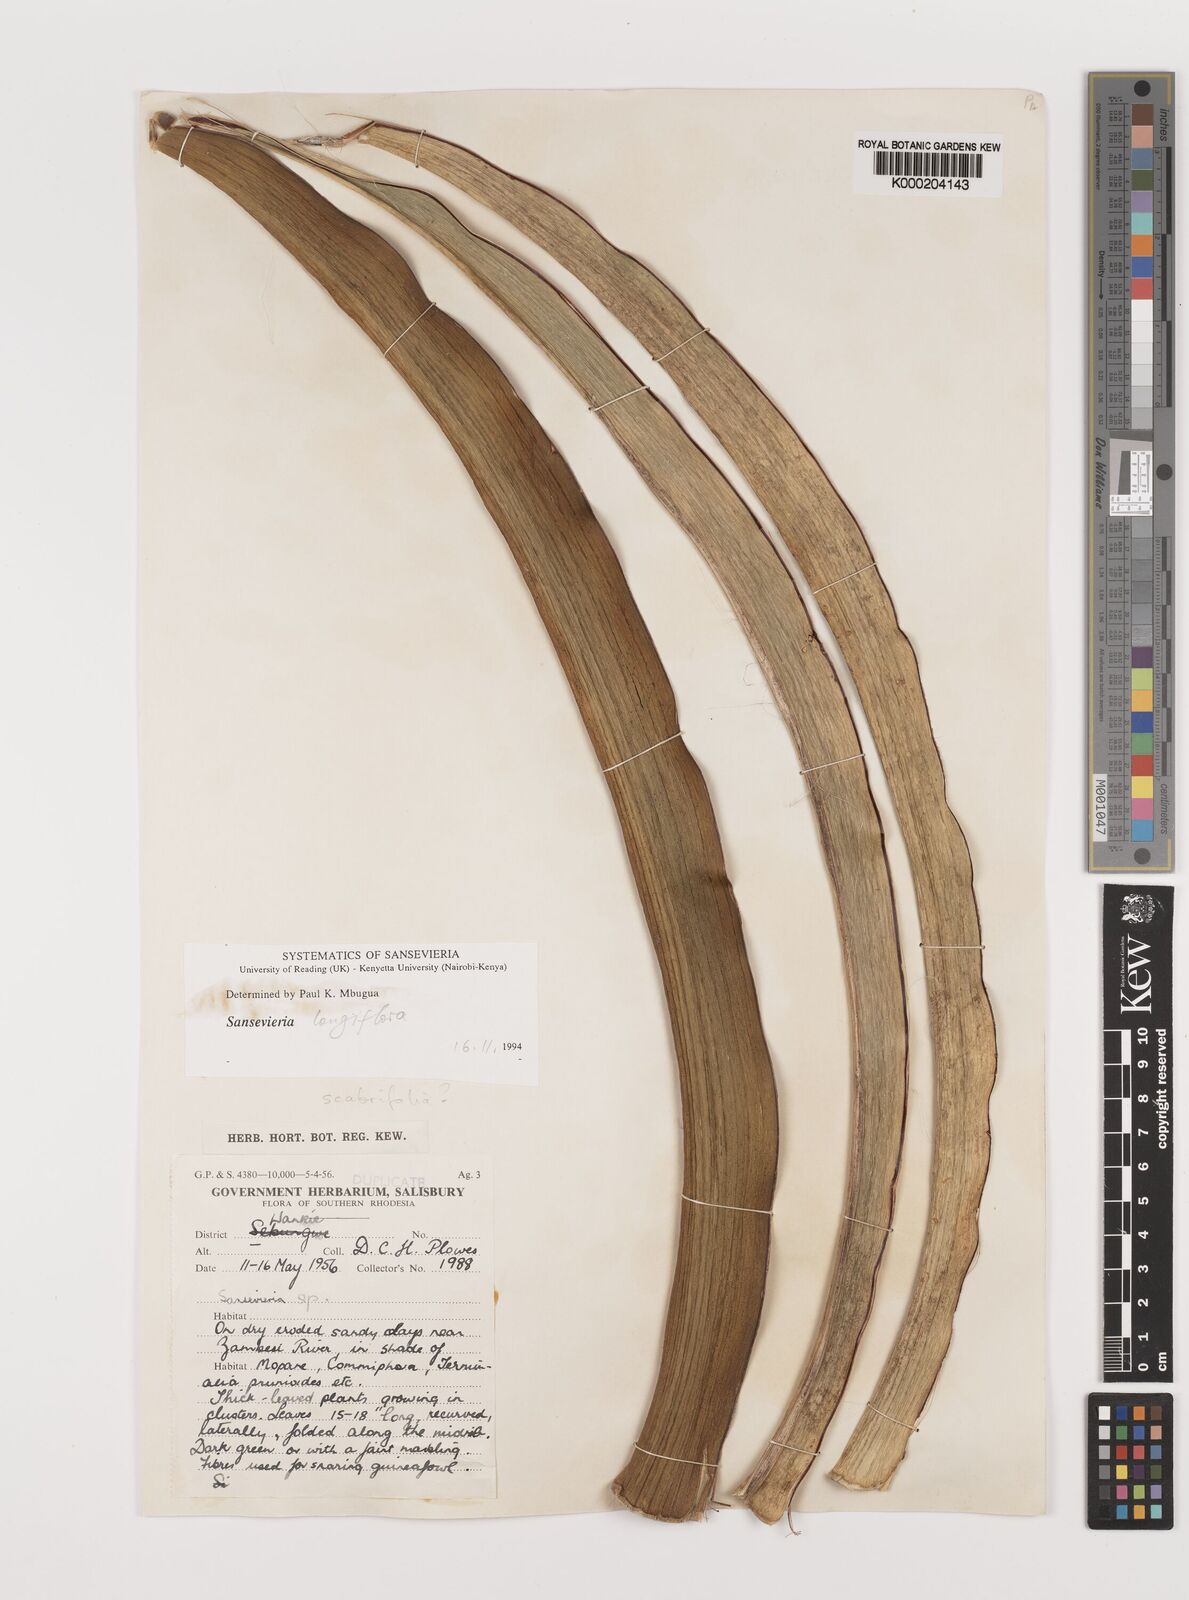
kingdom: Plantae
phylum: Tracheophyta
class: Liliopsida
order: Asparagales
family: Asparagaceae
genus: Dracaena
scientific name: Dracaena
